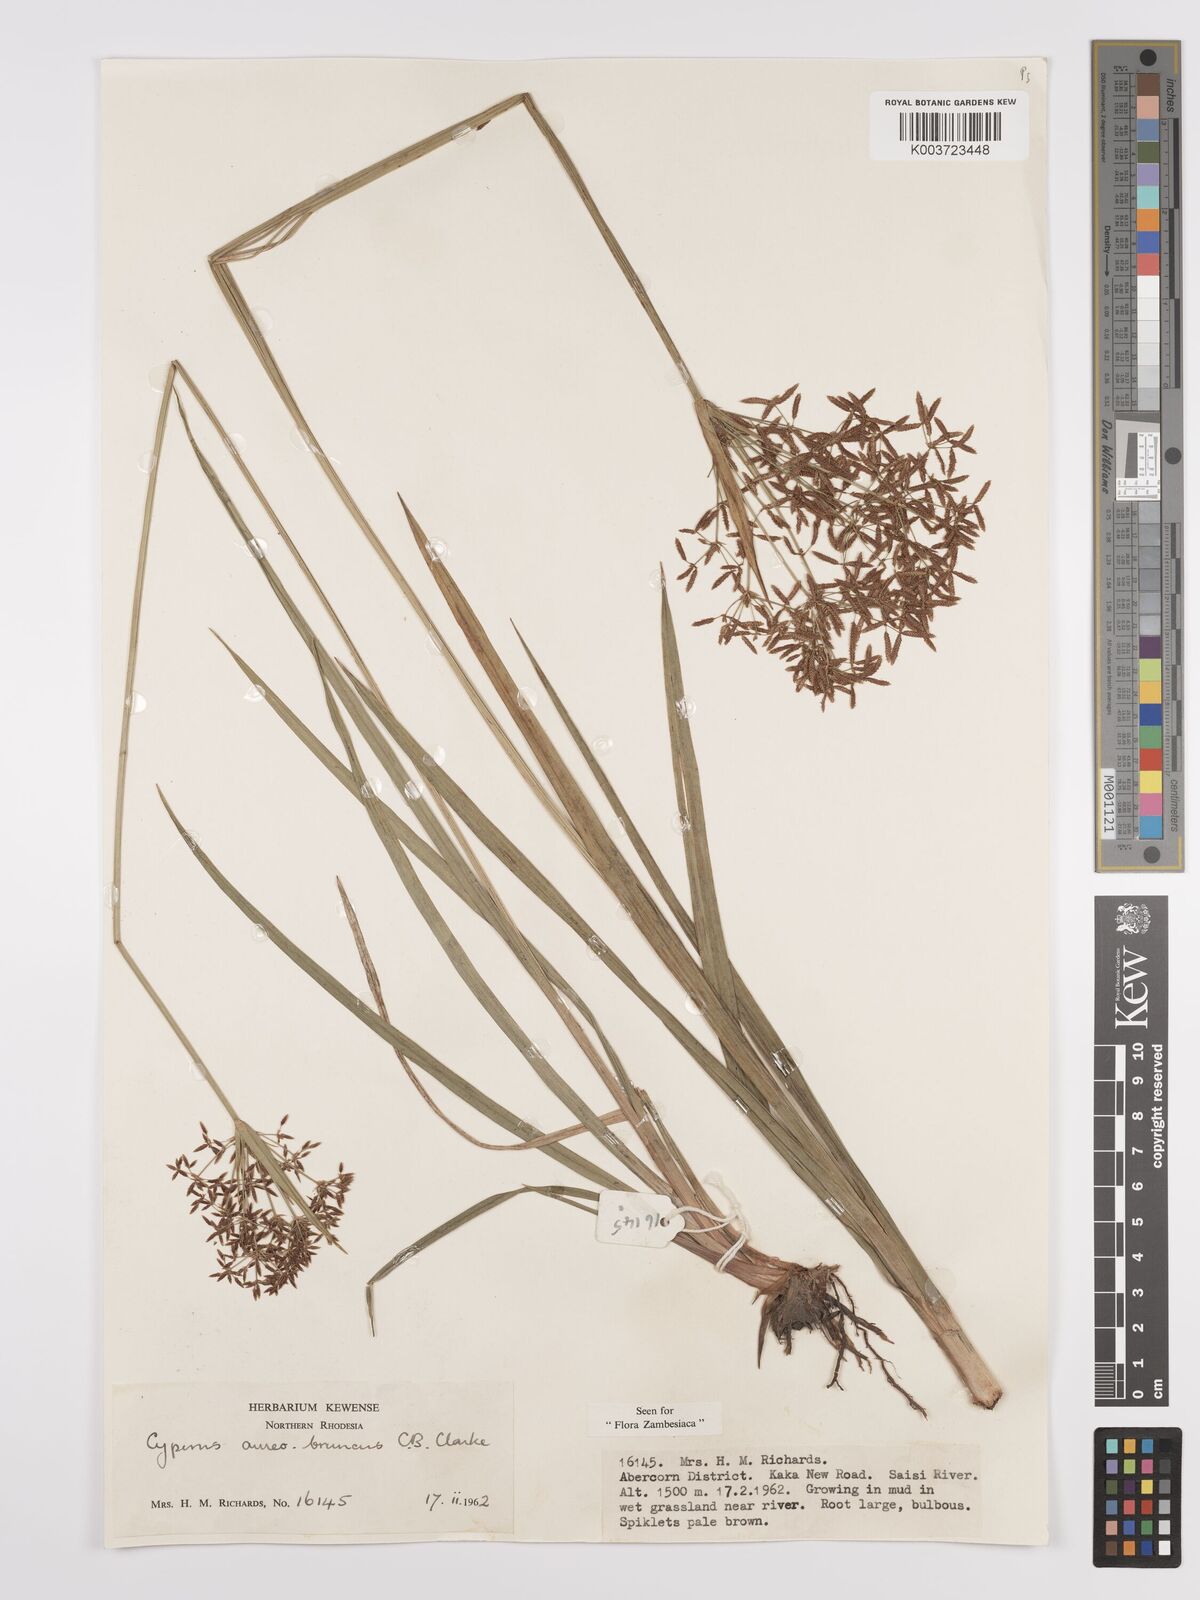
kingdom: Plantae
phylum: Tracheophyta
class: Liliopsida
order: Poales
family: Cyperaceae
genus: Cyperus
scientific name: Cyperus aureobrunneus
